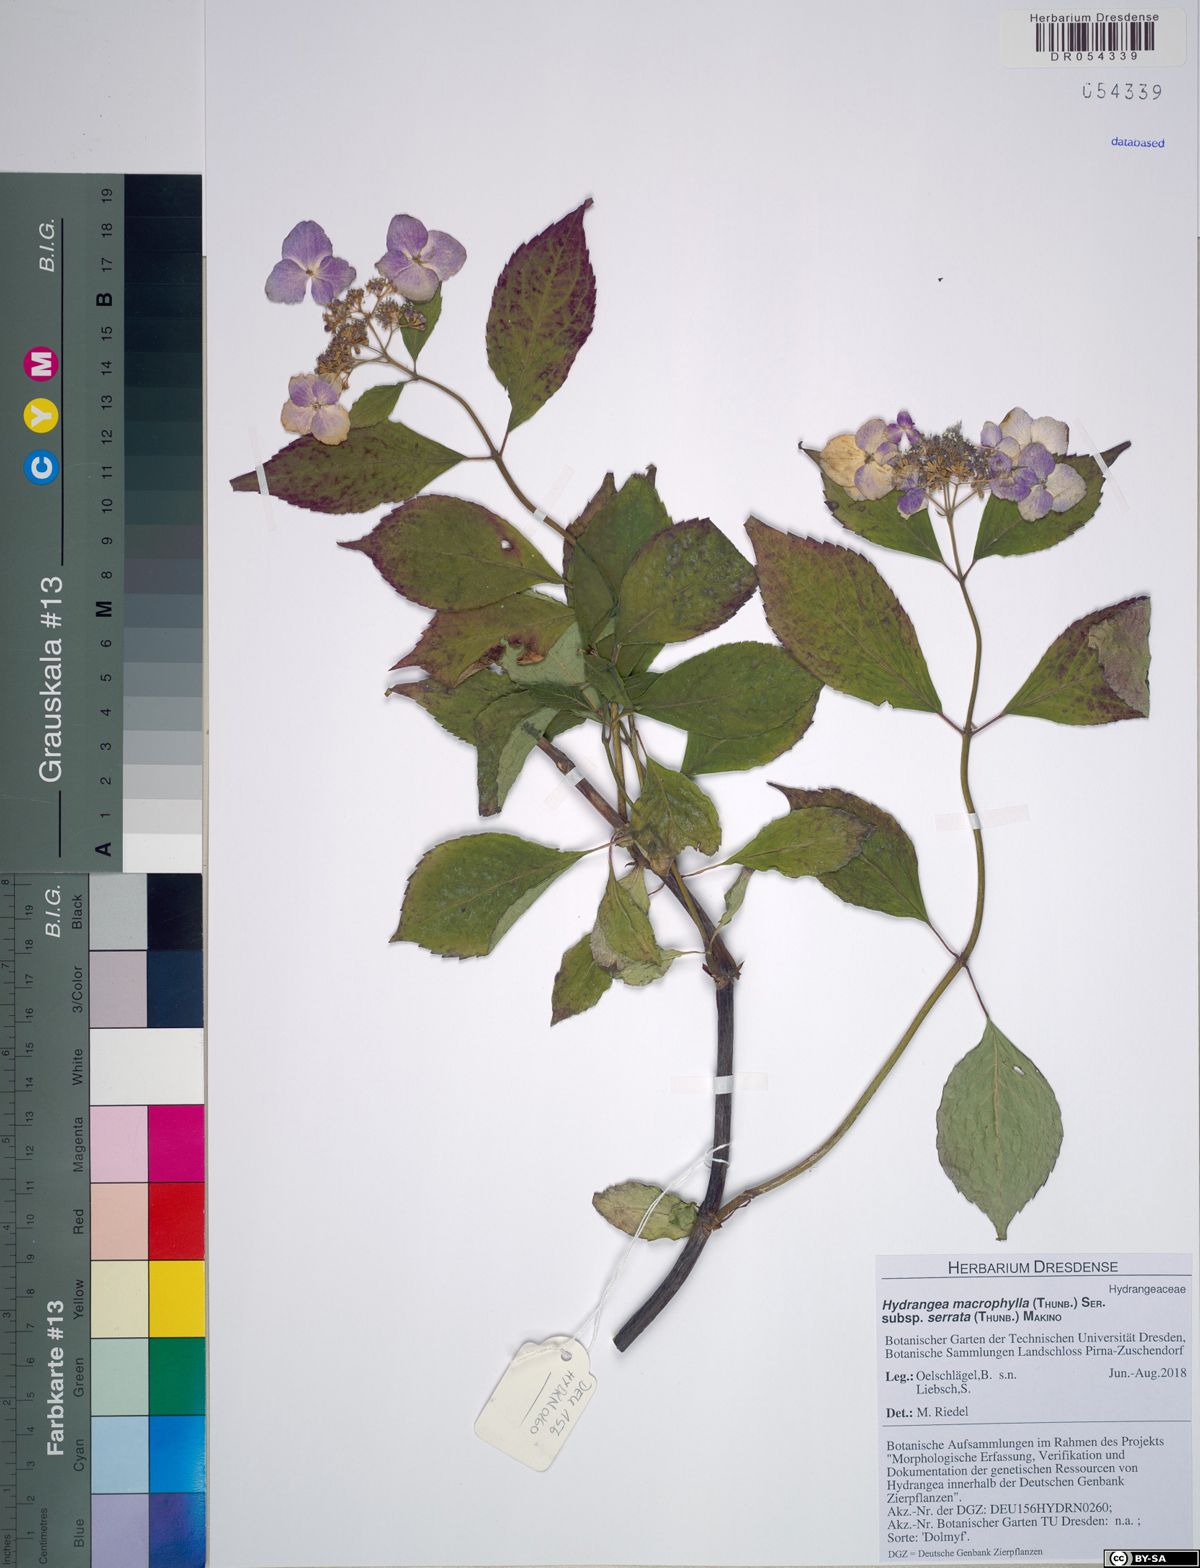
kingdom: Plantae
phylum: Tracheophyta
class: Magnoliopsida
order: Cornales
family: Hydrangeaceae
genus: Hydrangea
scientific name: Hydrangea serrata
